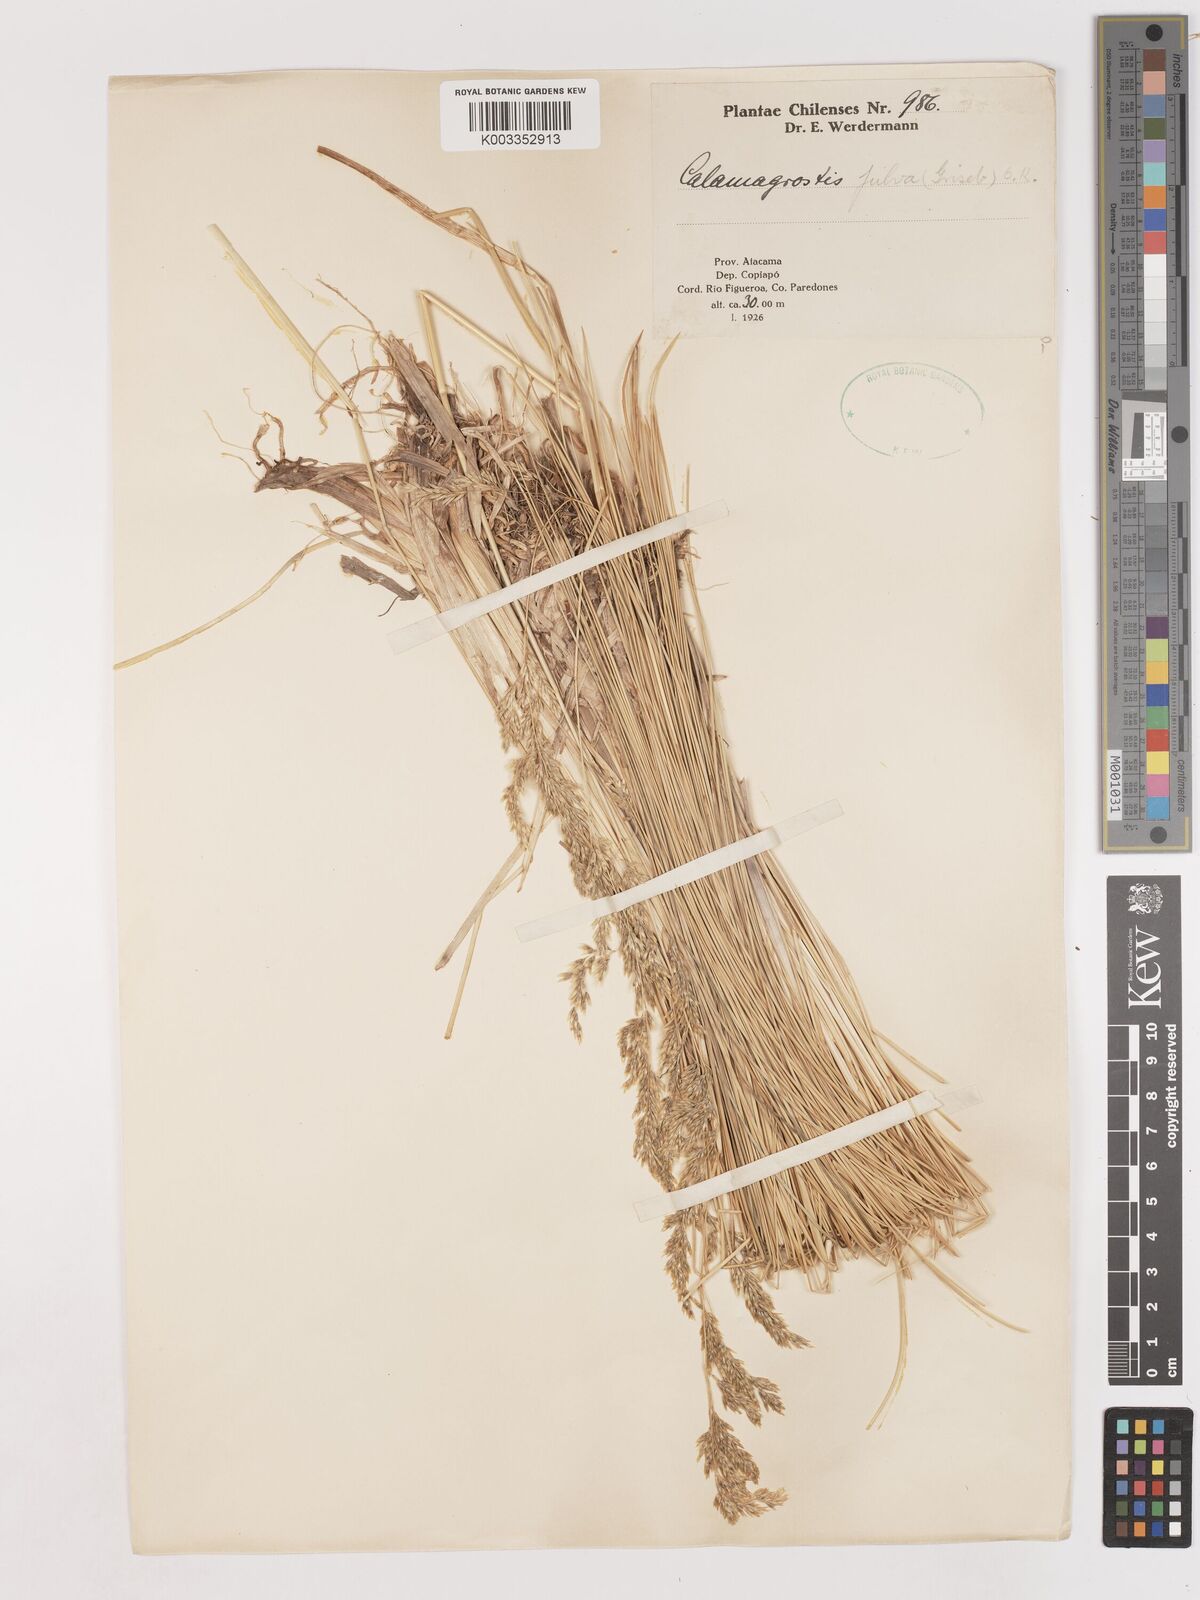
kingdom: Plantae
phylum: Tracheophyta
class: Liliopsida
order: Poales
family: Poaceae
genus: Deschampsia
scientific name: Deschampsia eminens
